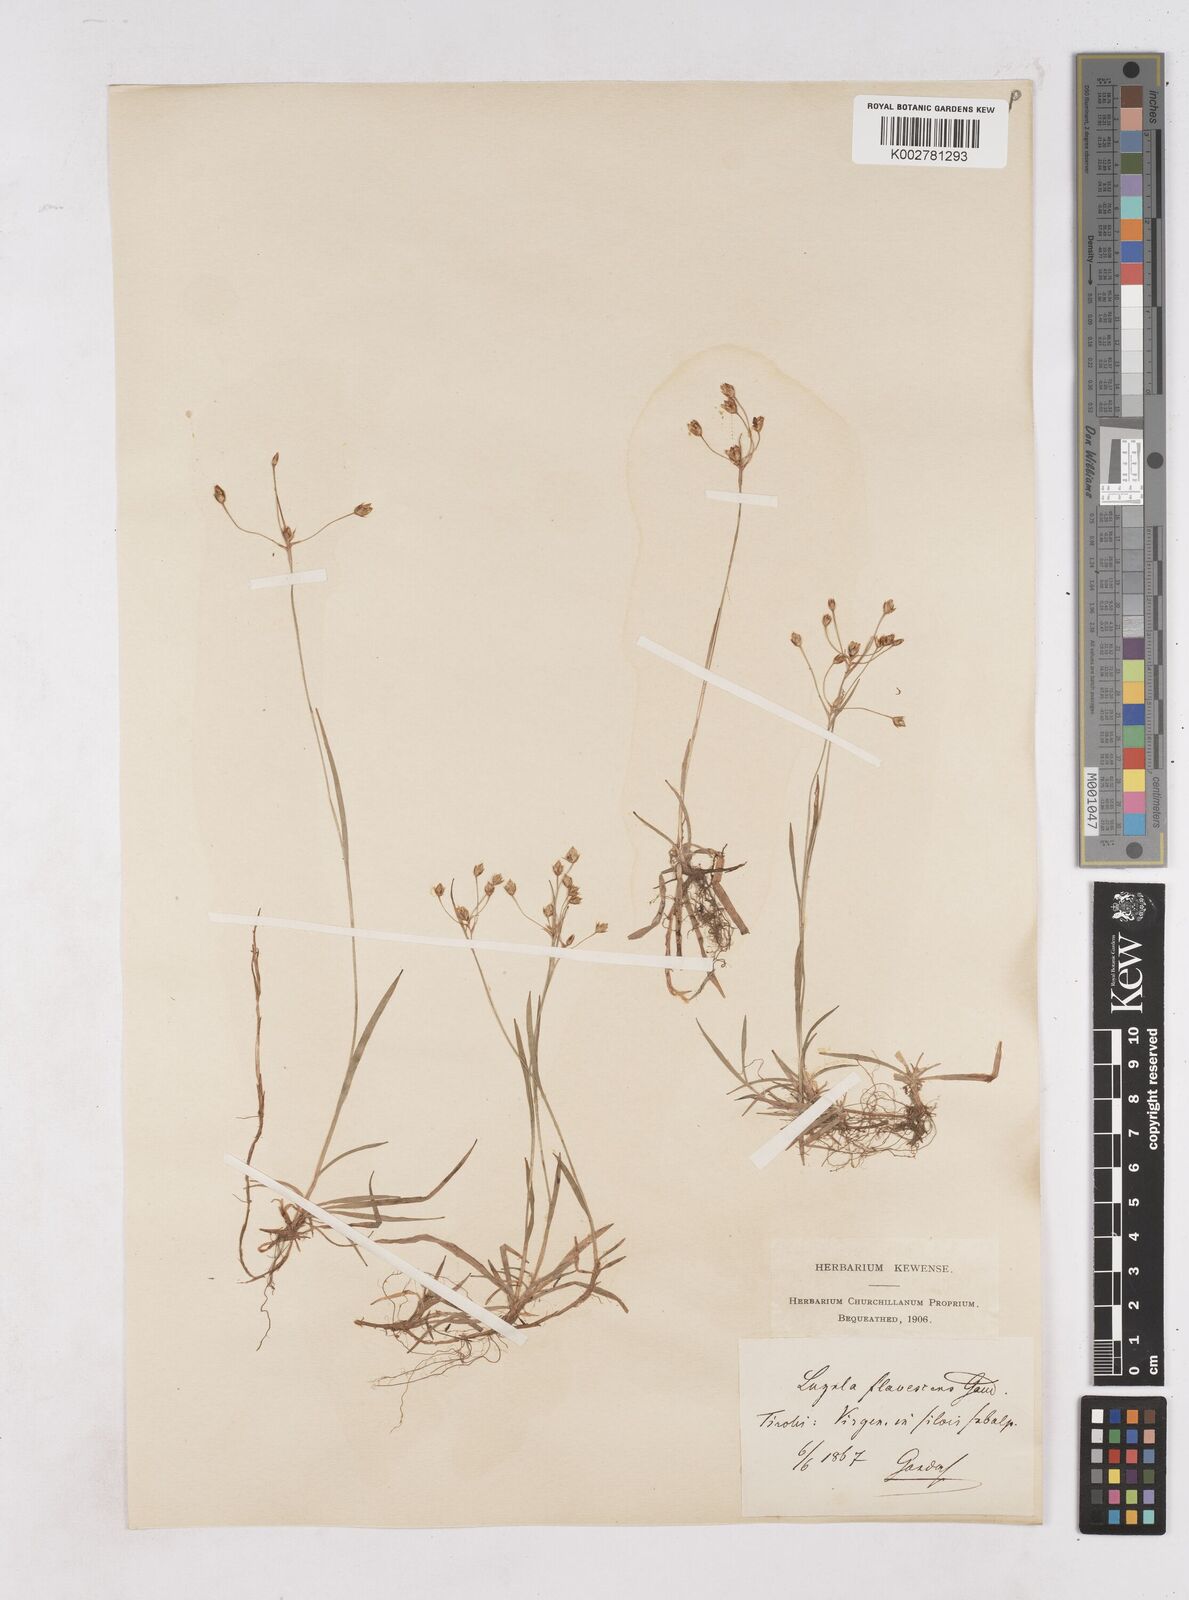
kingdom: Plantae
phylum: Tracheophyta
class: Liliopsida
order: Poales
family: Juncaceae
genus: Luzula
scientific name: Luzula luzulina
